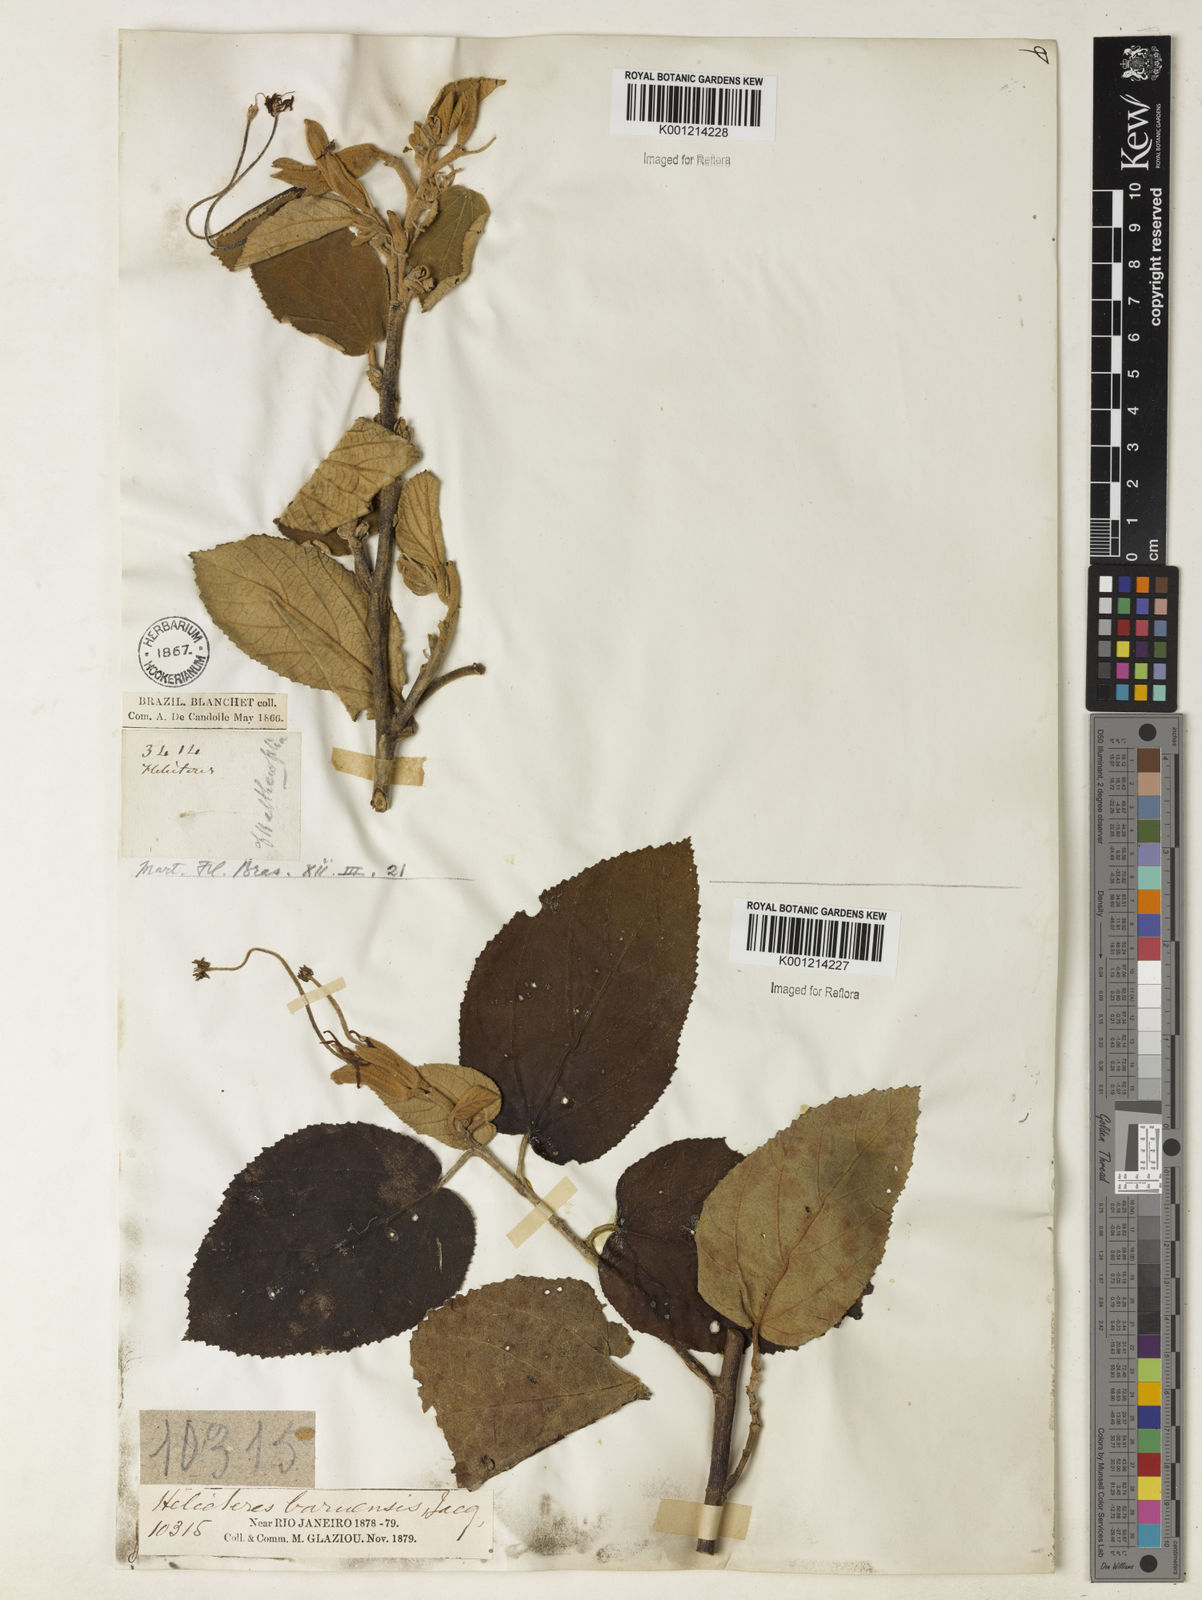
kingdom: Plantae
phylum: Tracheophyta
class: Magnoliopsida
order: Malvales
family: Malvaceae
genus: Helicteres
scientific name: Helicteres baruensis
